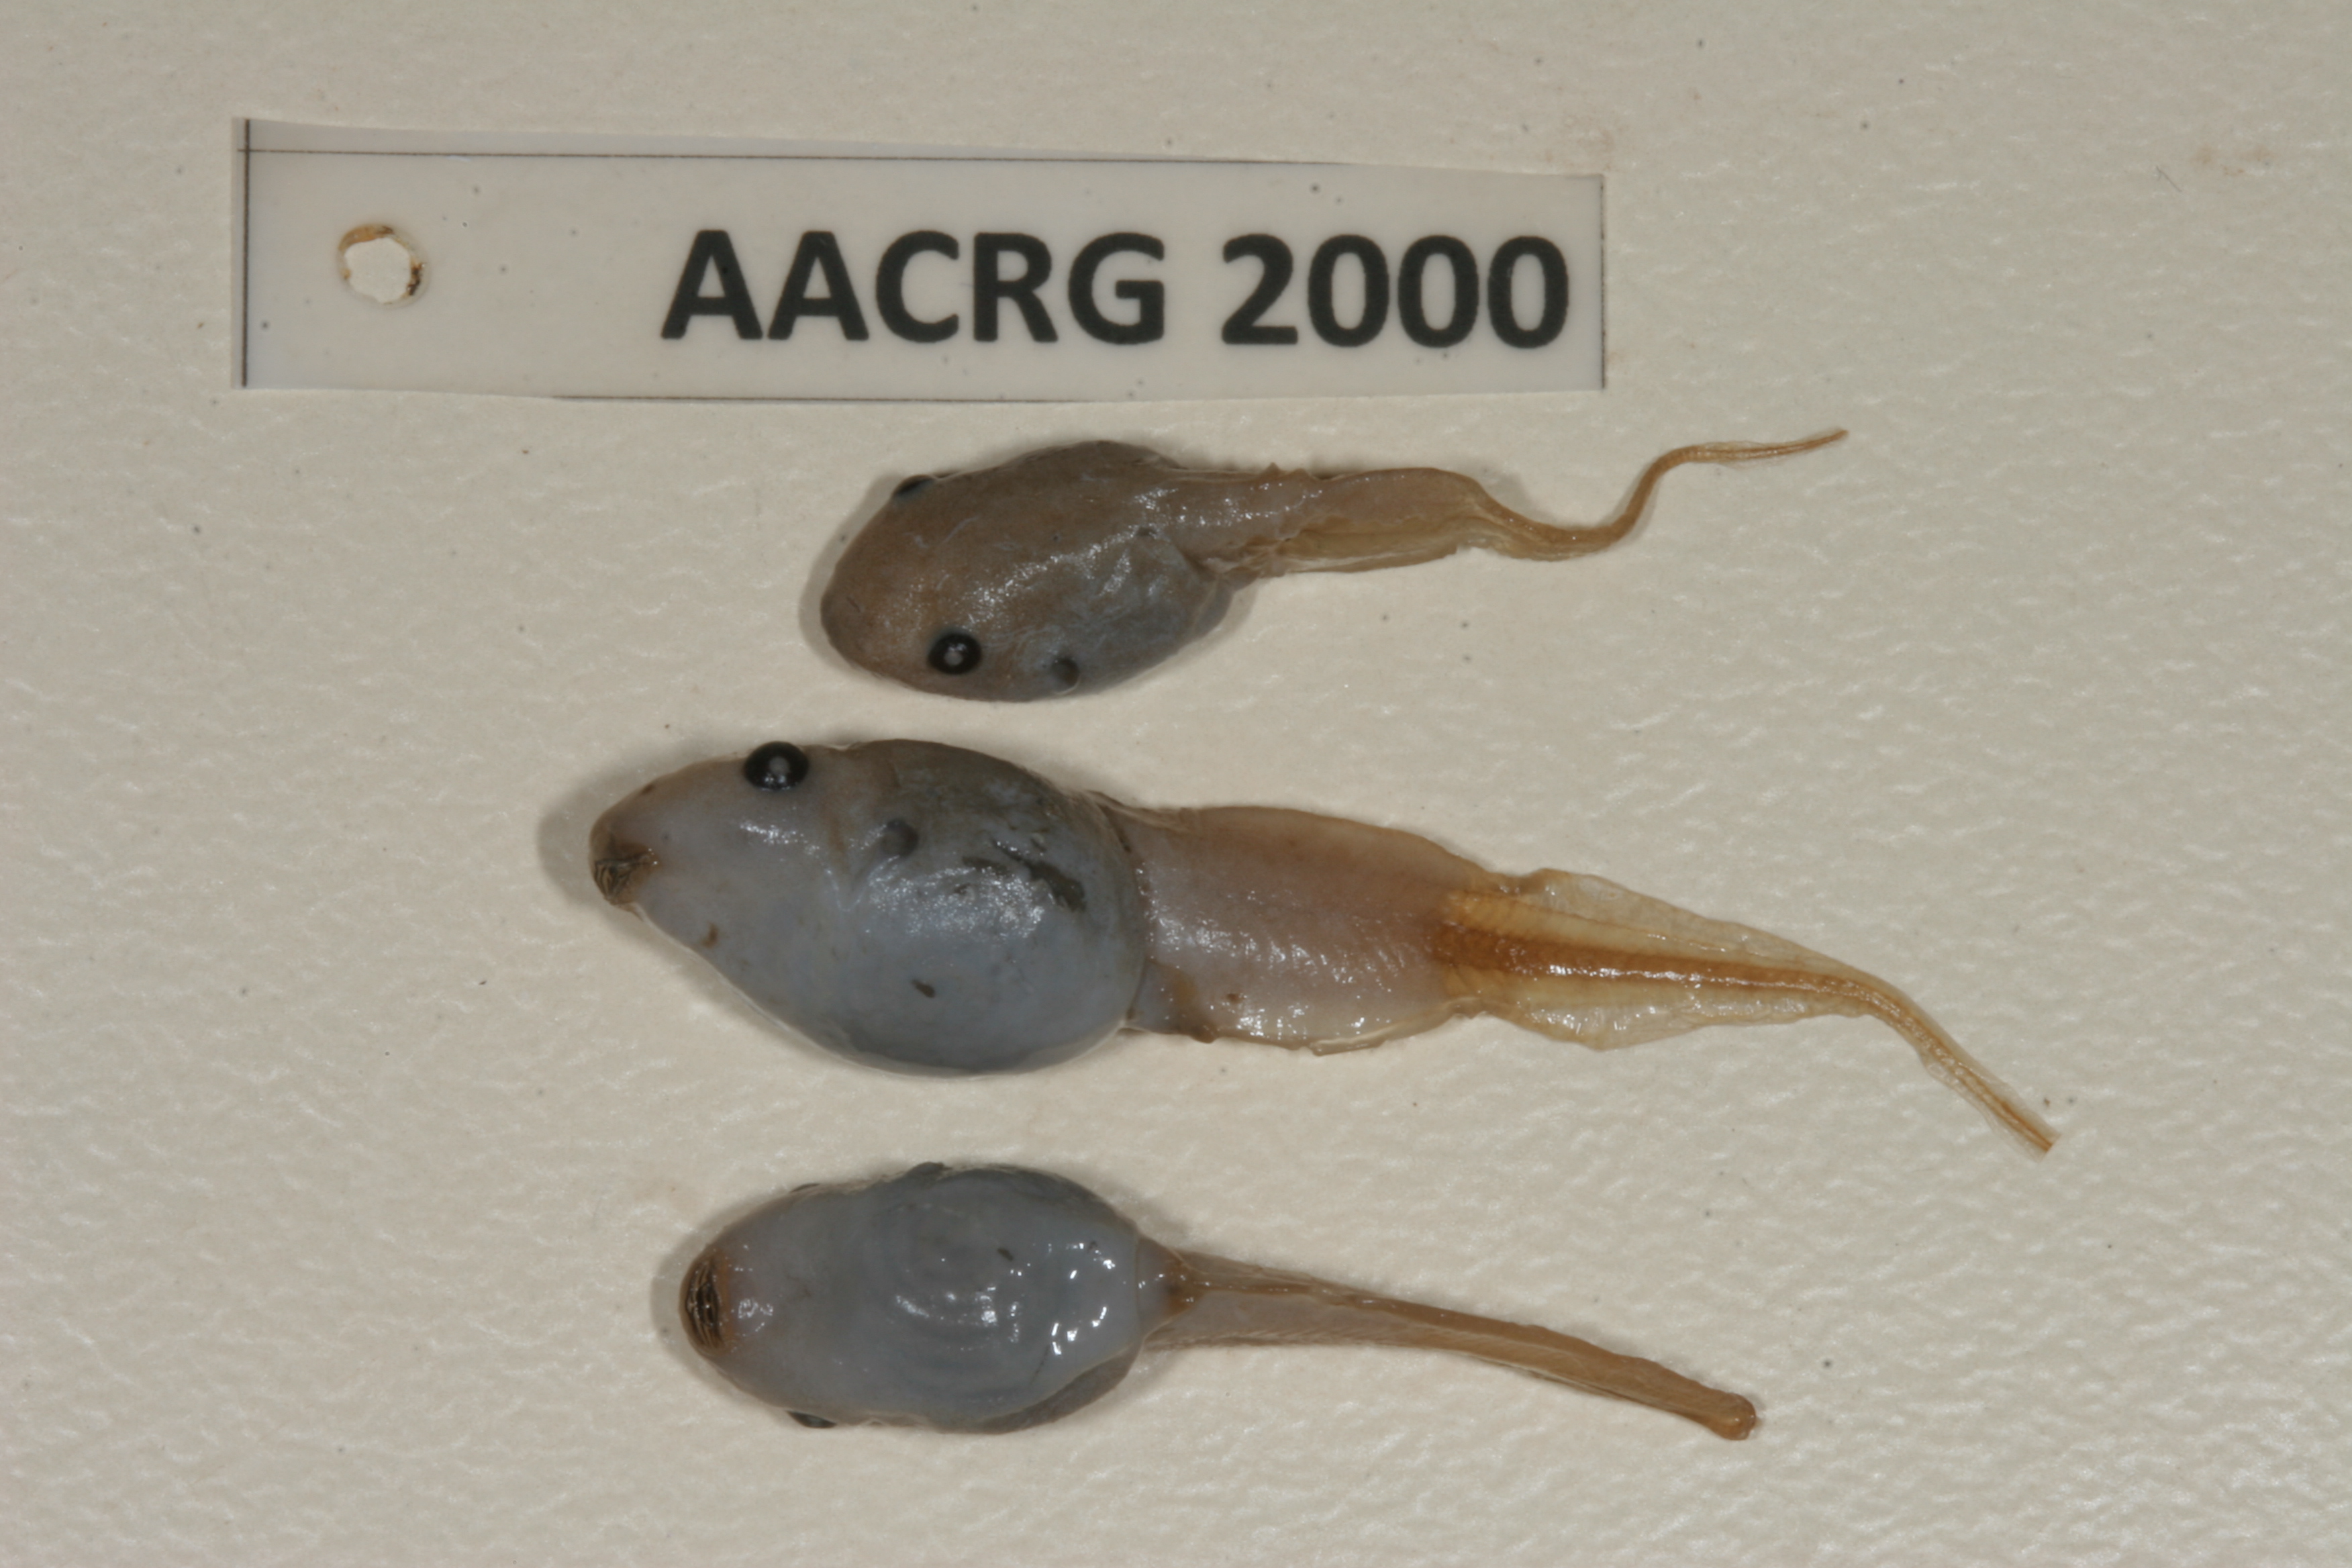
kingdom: Animalia
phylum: Chordata
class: Amphibia
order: Anura
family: Hemisotidae
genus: Hemisus
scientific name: Hemisus marmoratus
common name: Mottled shovel-nosed frog
